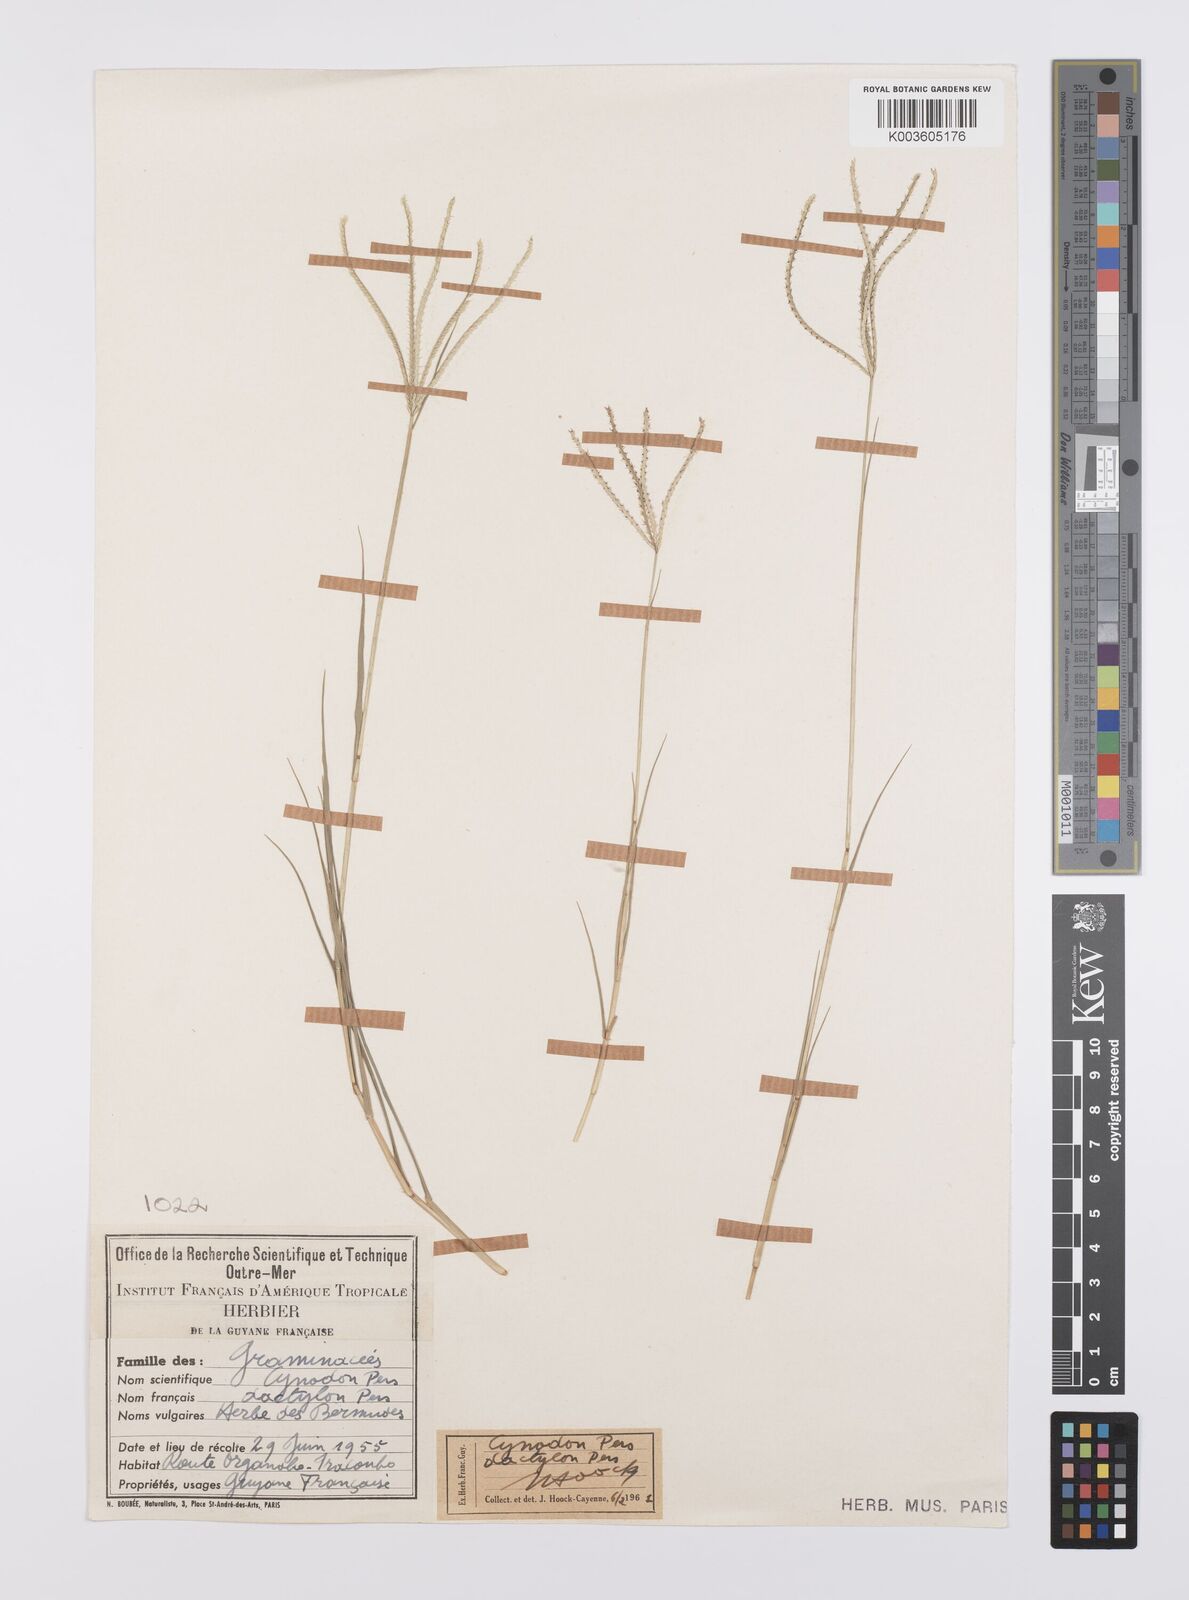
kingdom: Plantae
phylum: Tracheophyta
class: Liliopsida
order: Poales
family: Poaceae
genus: Cynodon
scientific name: Cynodon dactylon
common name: Bermuda grass
